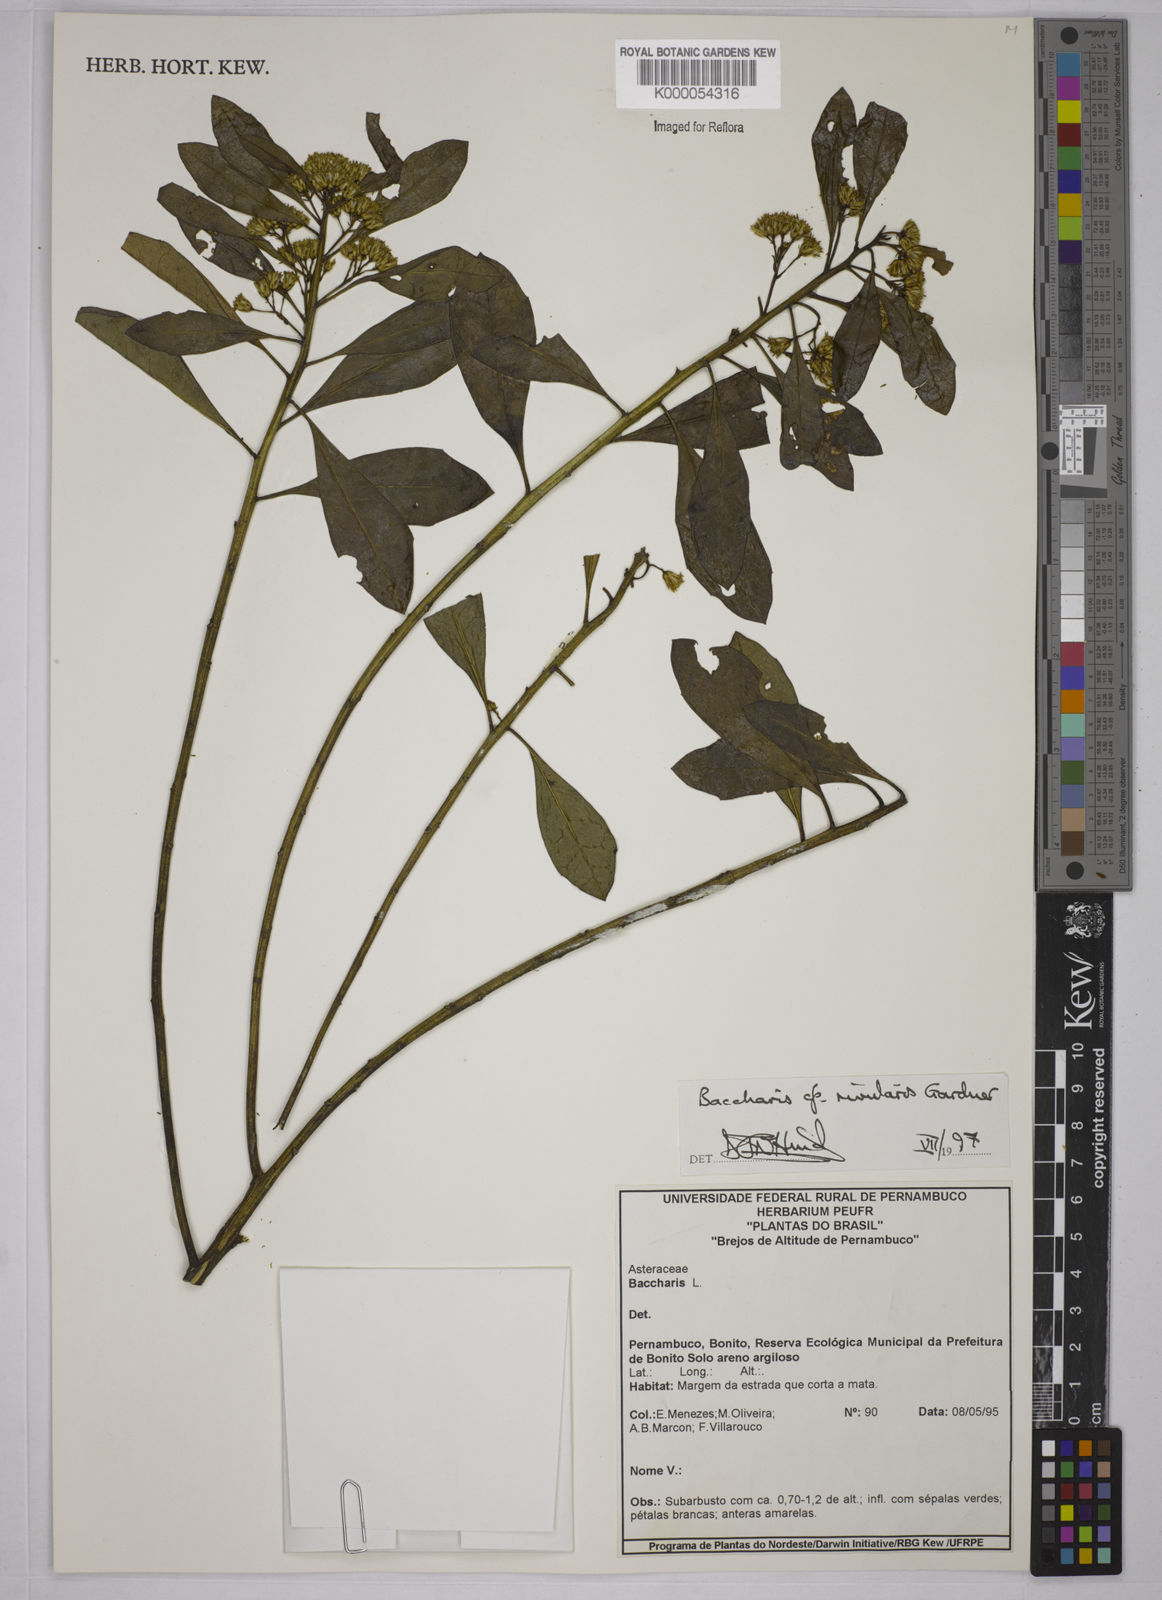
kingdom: Plantae
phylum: Tracheophyta
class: Magnoliopsida
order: Asterales
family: Asteraceae
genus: Baccharis
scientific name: Baccharis rivularis
